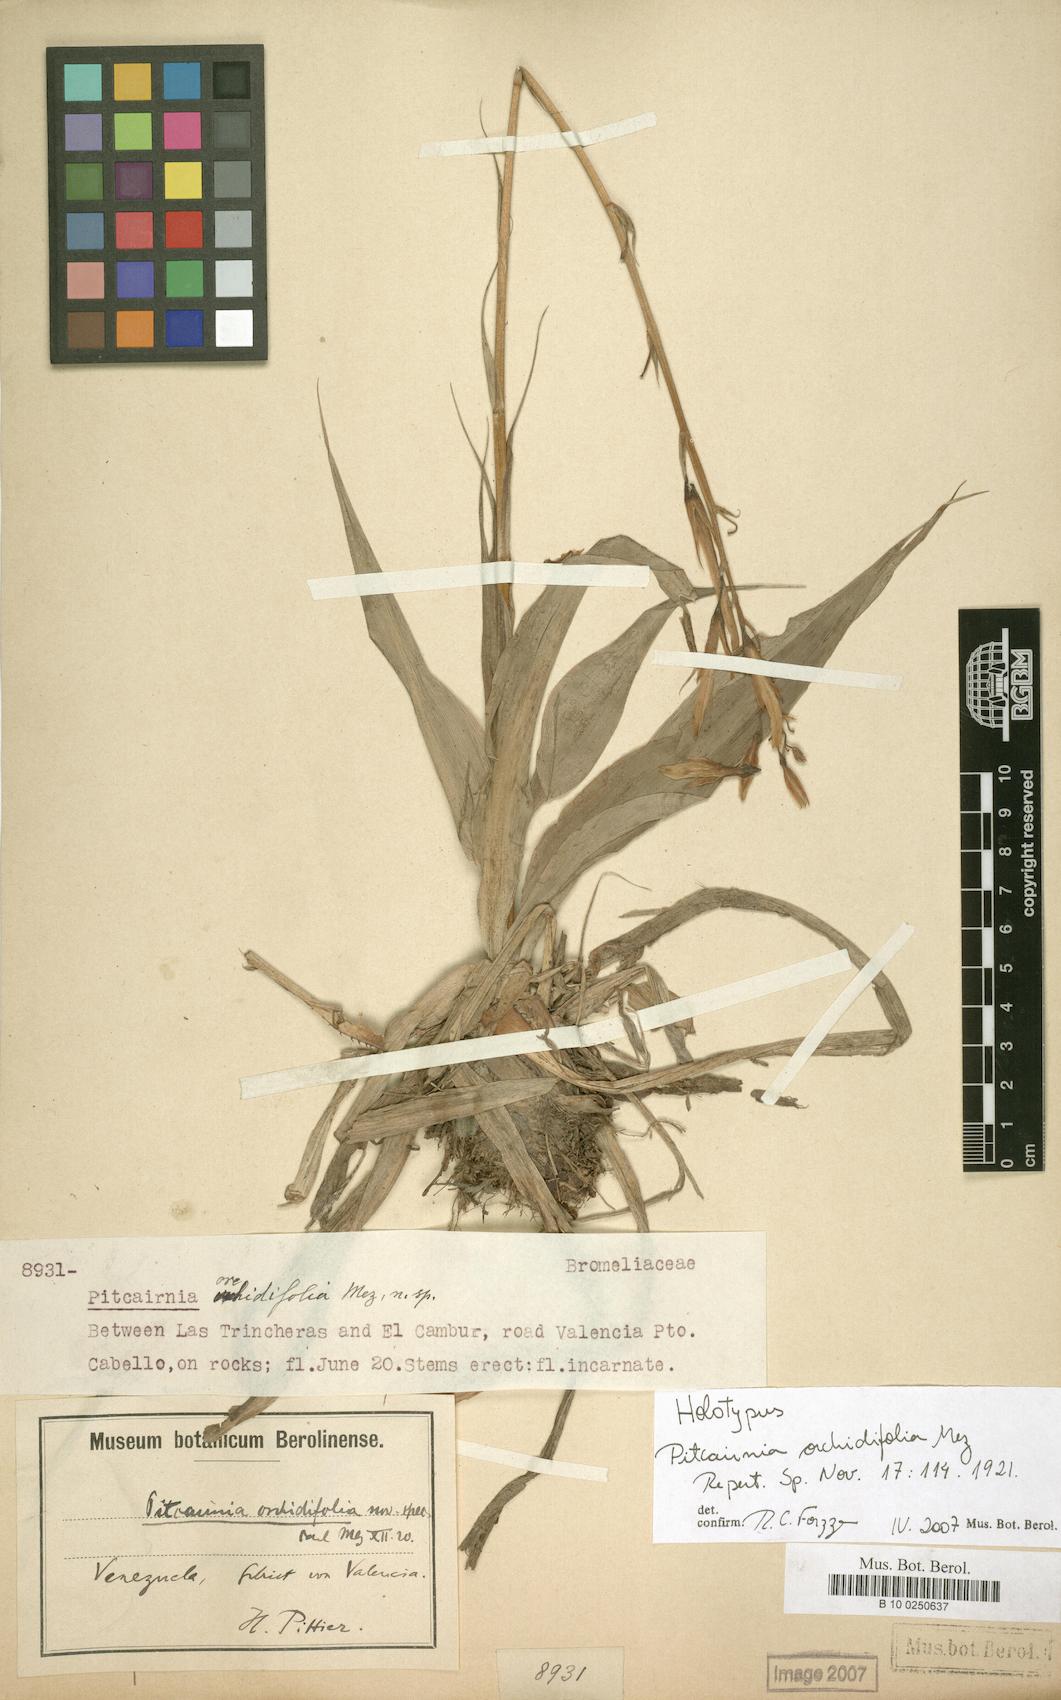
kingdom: Plantae
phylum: Tracheophyta
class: Liliopsida
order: Poales
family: Bromeliaceae
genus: Pitcairnia
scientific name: Pitcairnia orchidifolia
